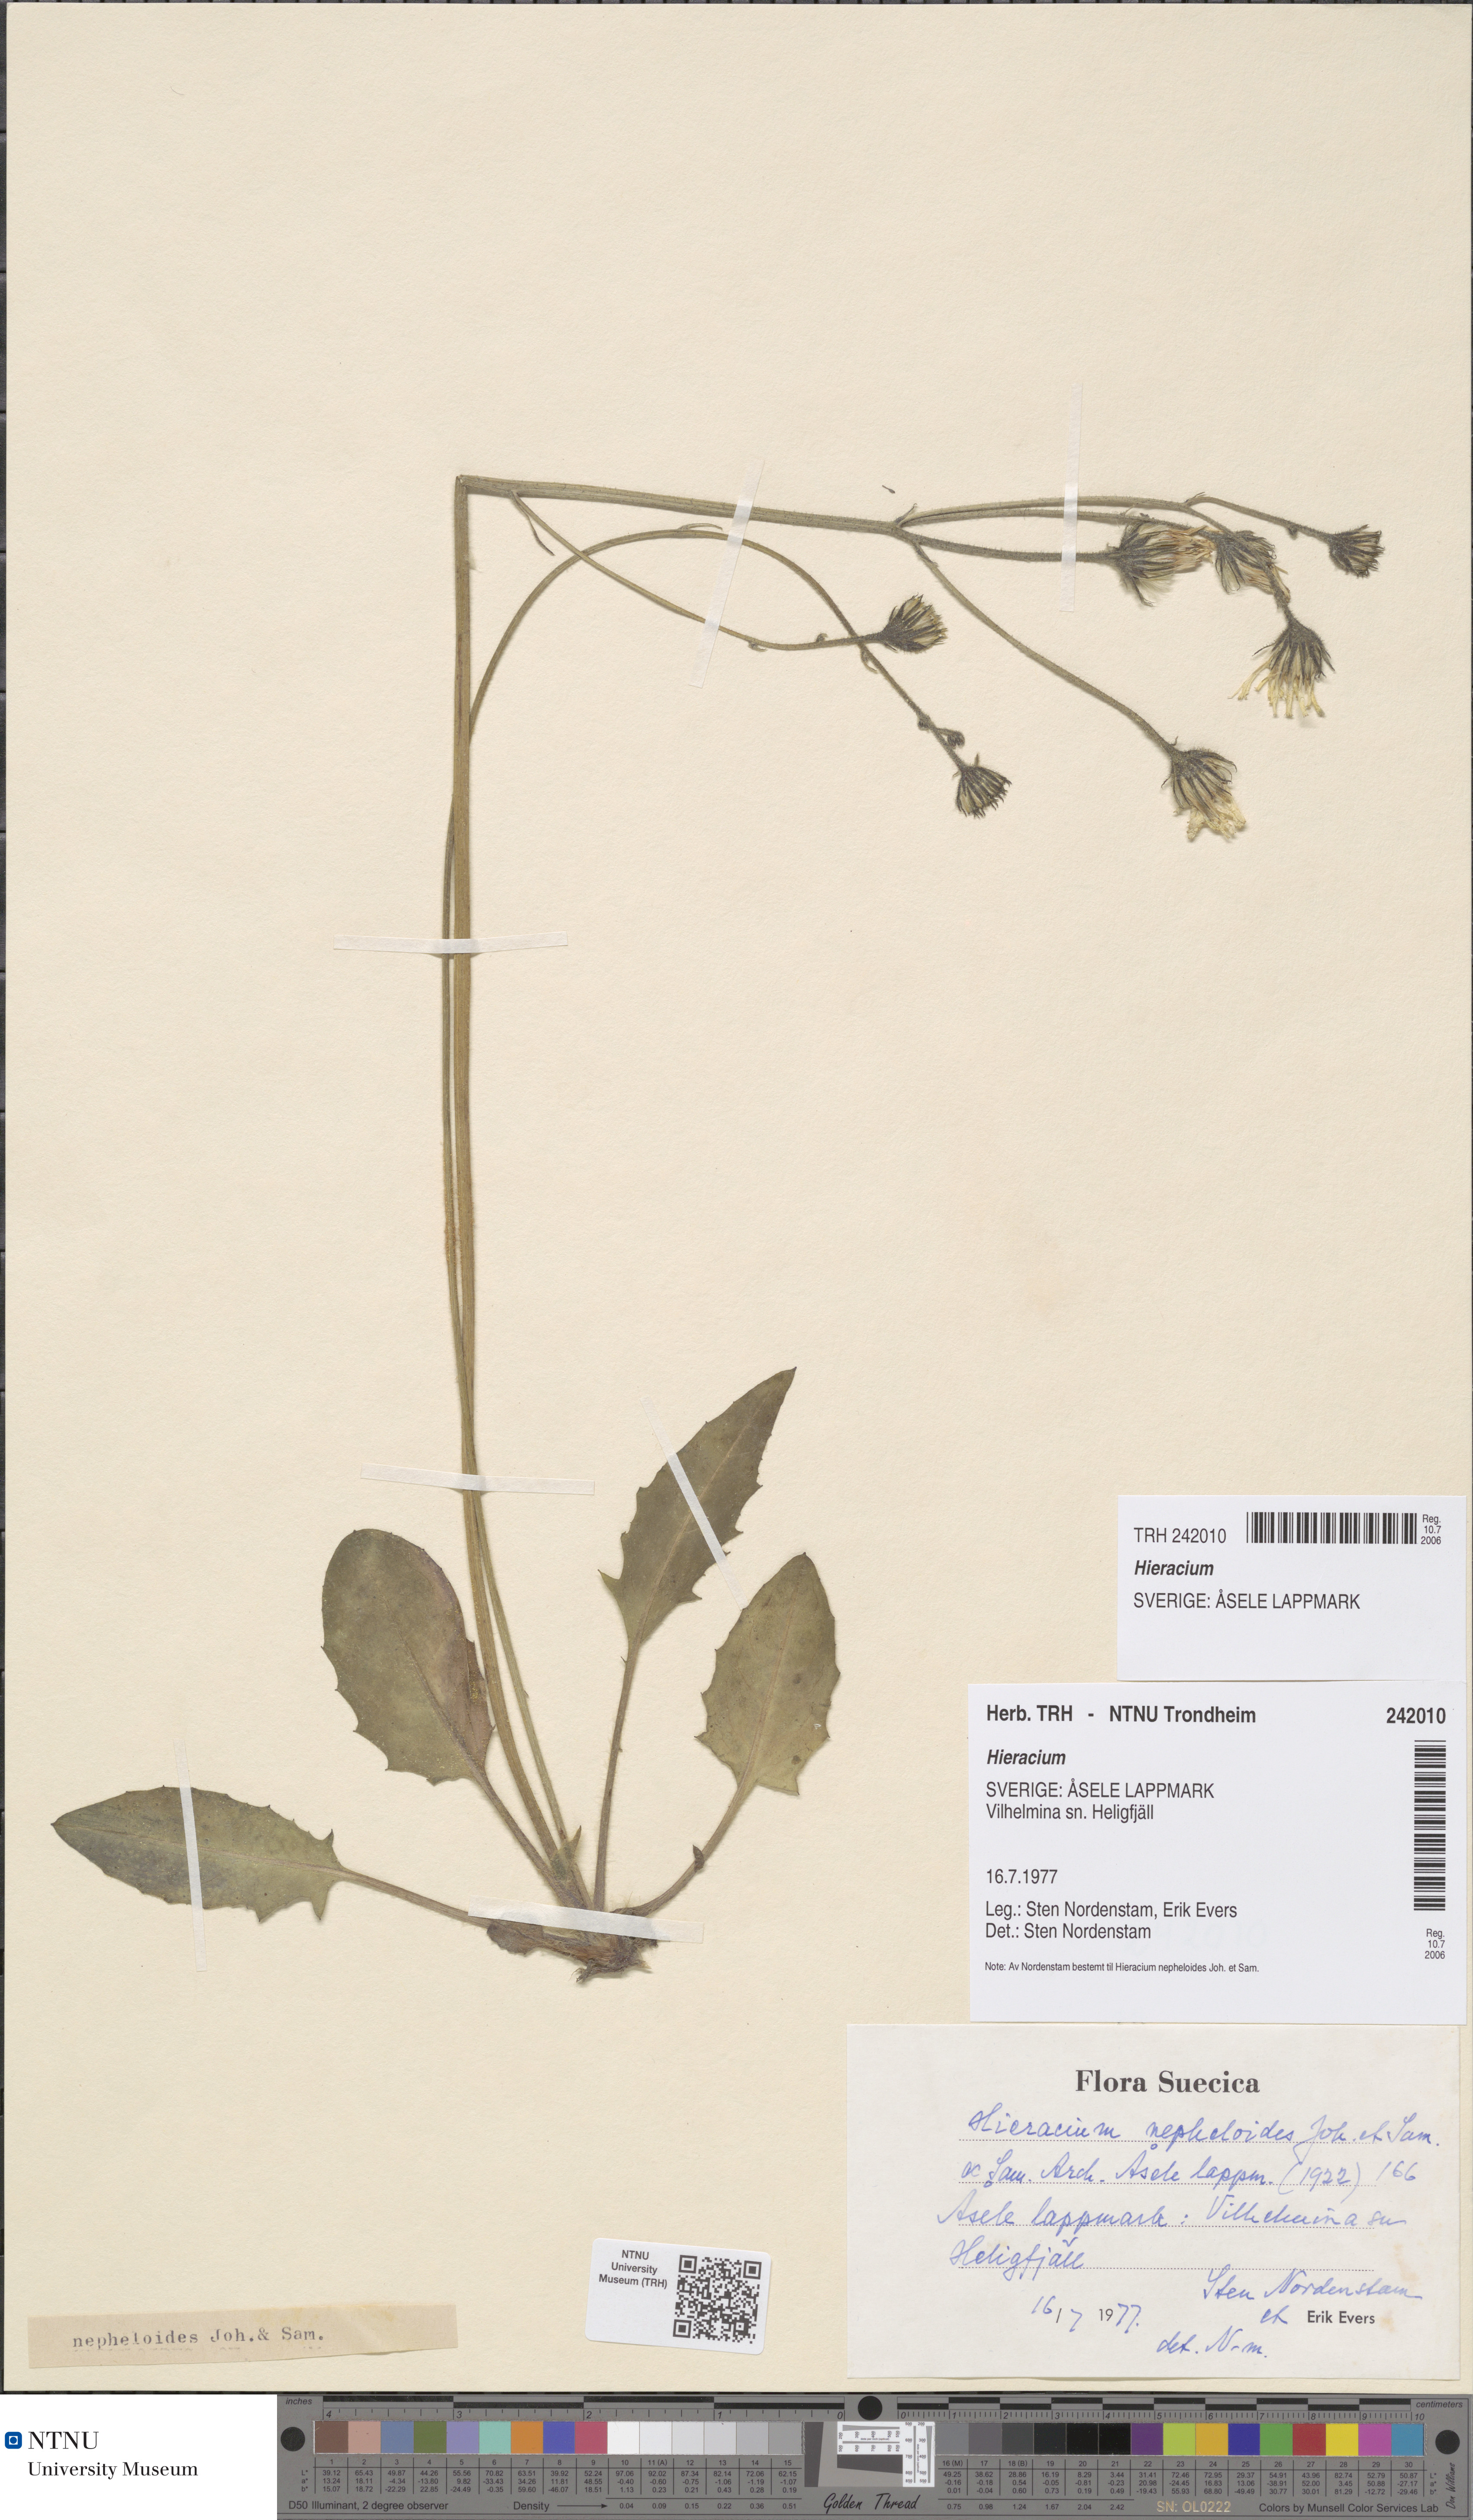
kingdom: Plantae
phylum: Tracheophyta
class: Magnoliopsida
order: Asterales
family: Asteraceae
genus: Hieracium
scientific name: Hieracium
